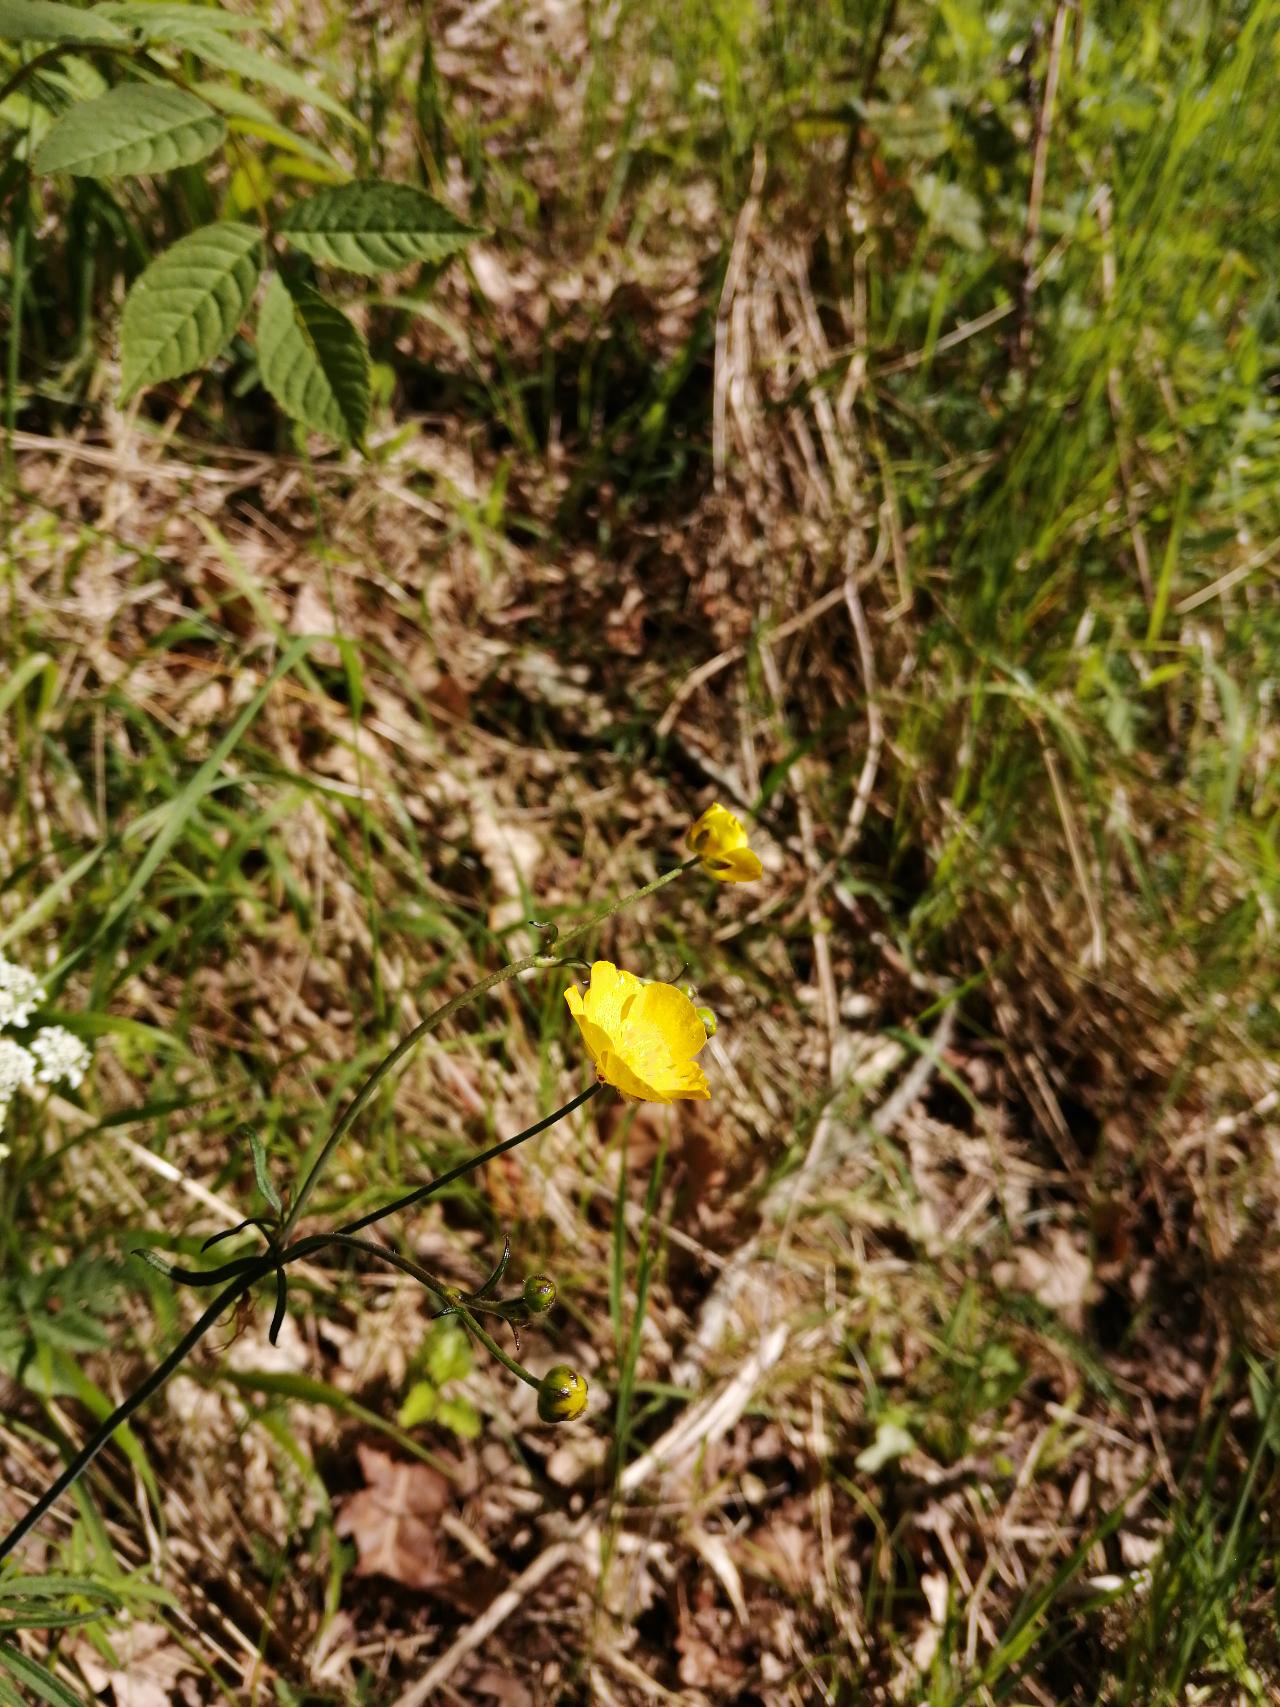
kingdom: Plantae
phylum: Tracheophyta
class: Magnoliopsida
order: Ranunculales
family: Ranunculaceae
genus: Ranunculus
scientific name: Ranunculus acris
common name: Bidende ranunkel
